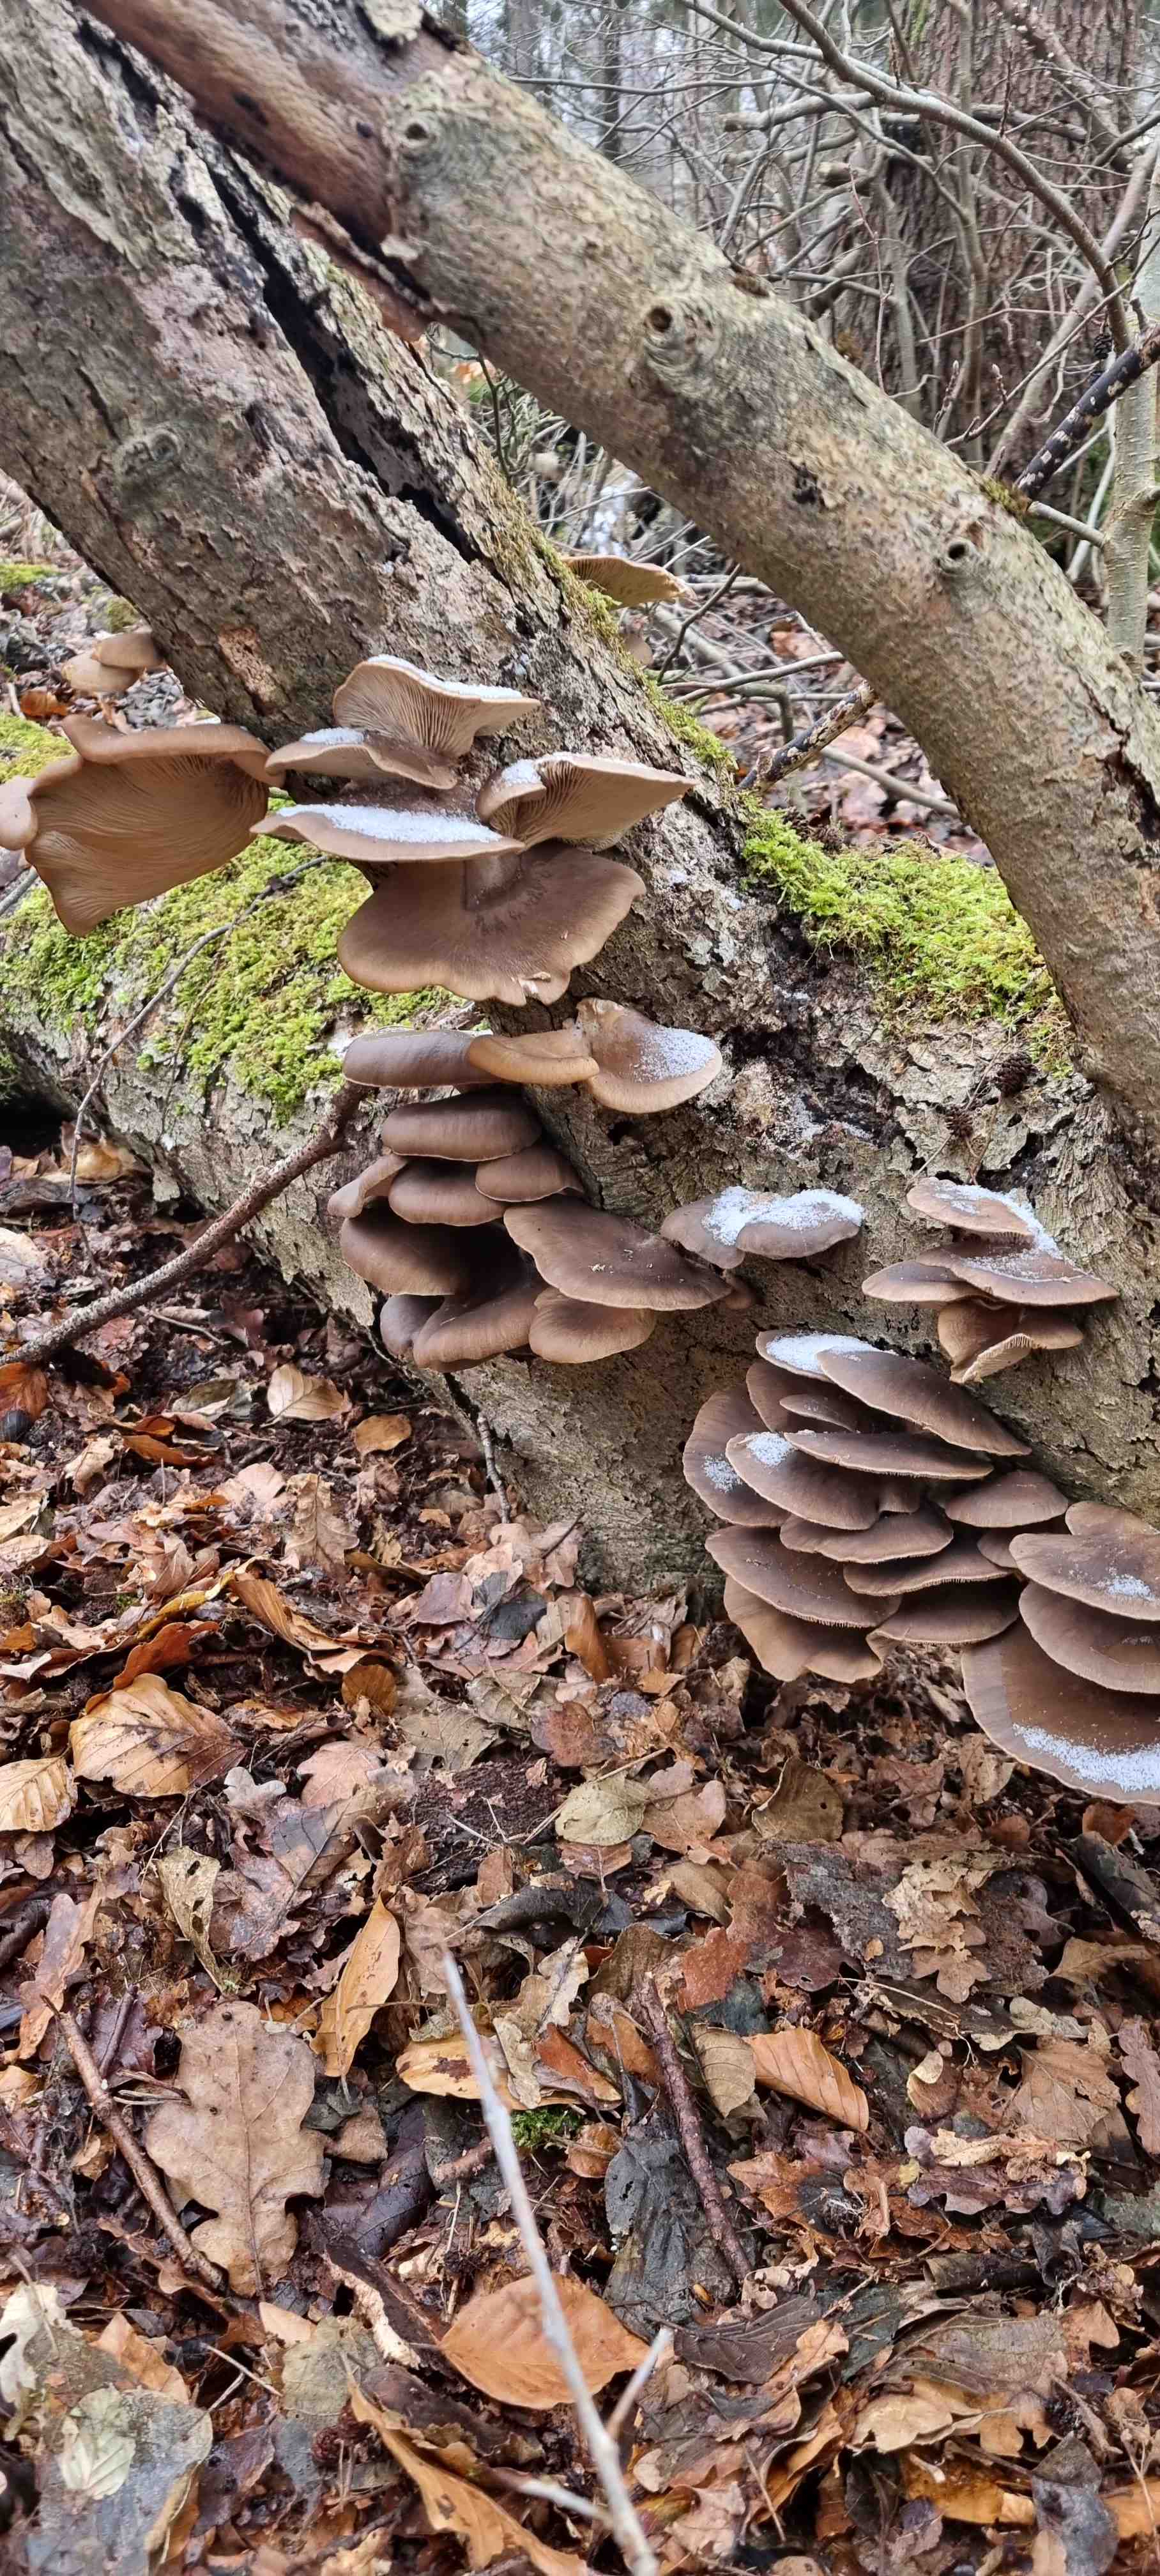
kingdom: Fungi
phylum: Basidiomycota
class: Agaricomycetes
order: Agaricales
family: Pleurotaceae
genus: Pleurotus
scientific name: Pleurotus ostreatus
